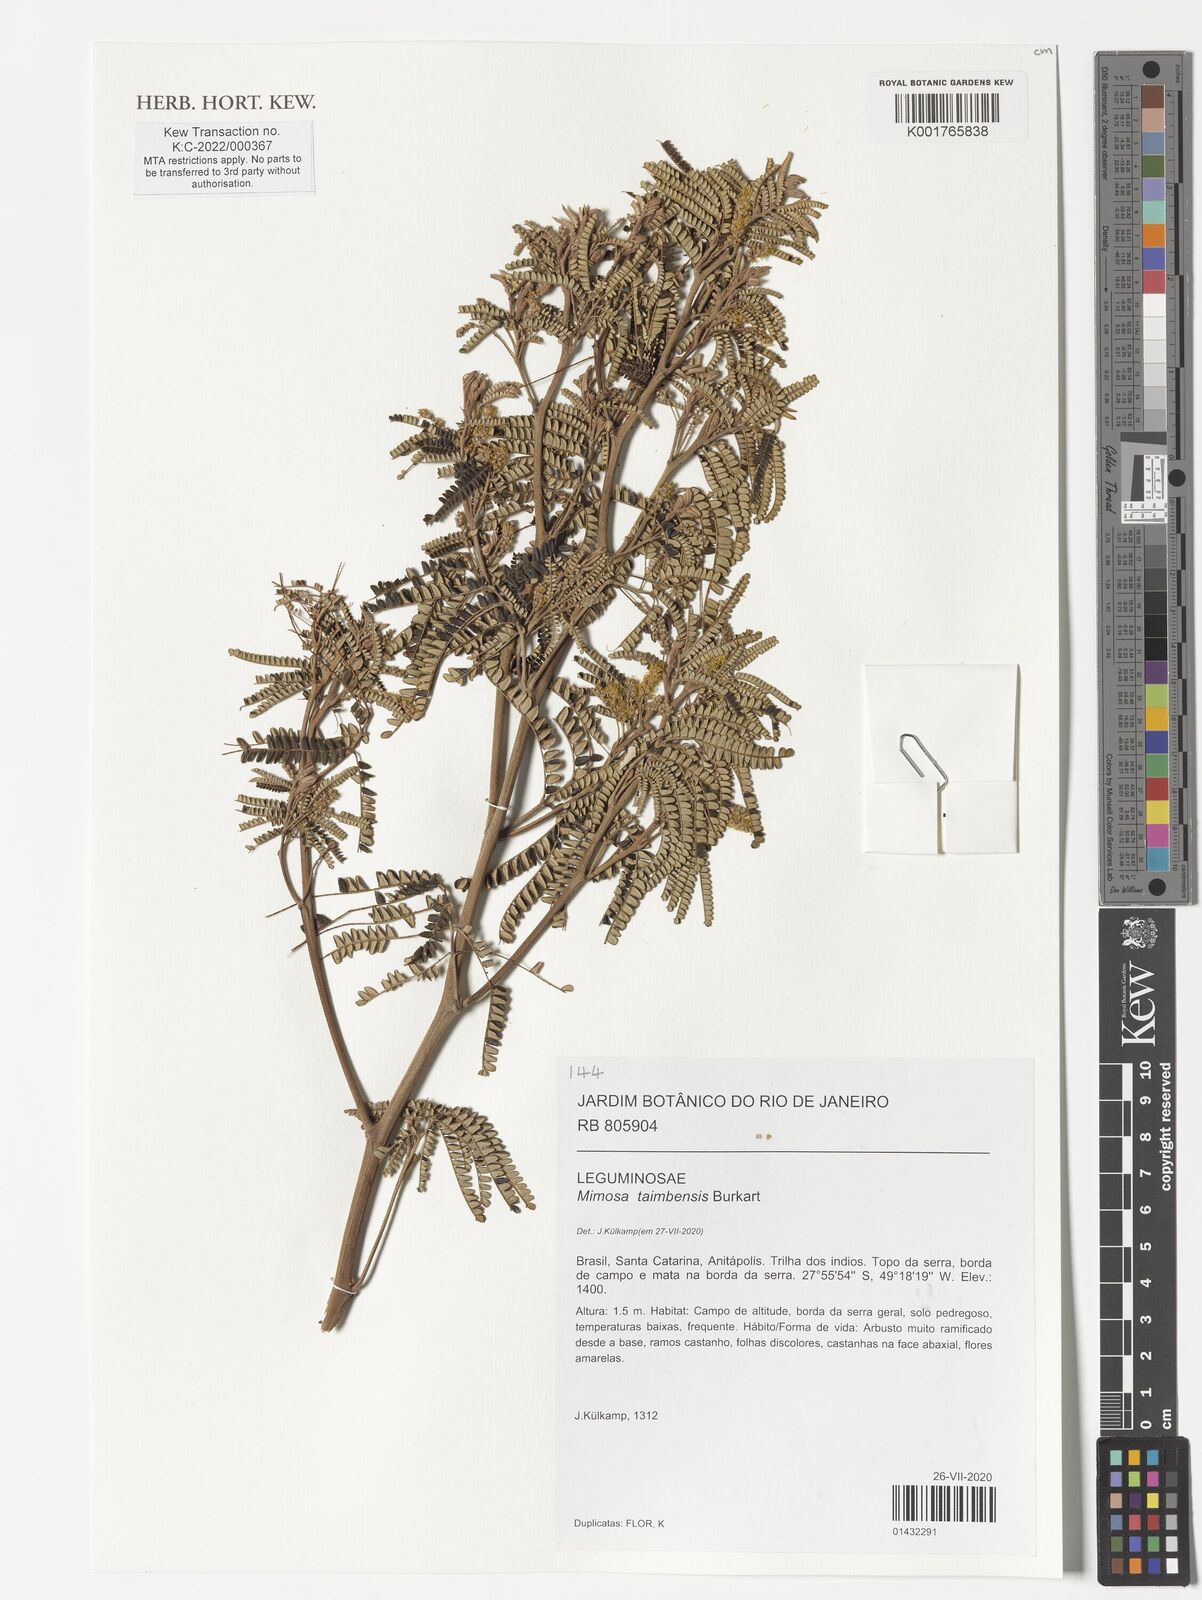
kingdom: Plantae
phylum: Tracheophyta
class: Magnoliopsida
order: Fabales
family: Fabaceae
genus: Mimosa
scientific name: Mimosa taimbensis
